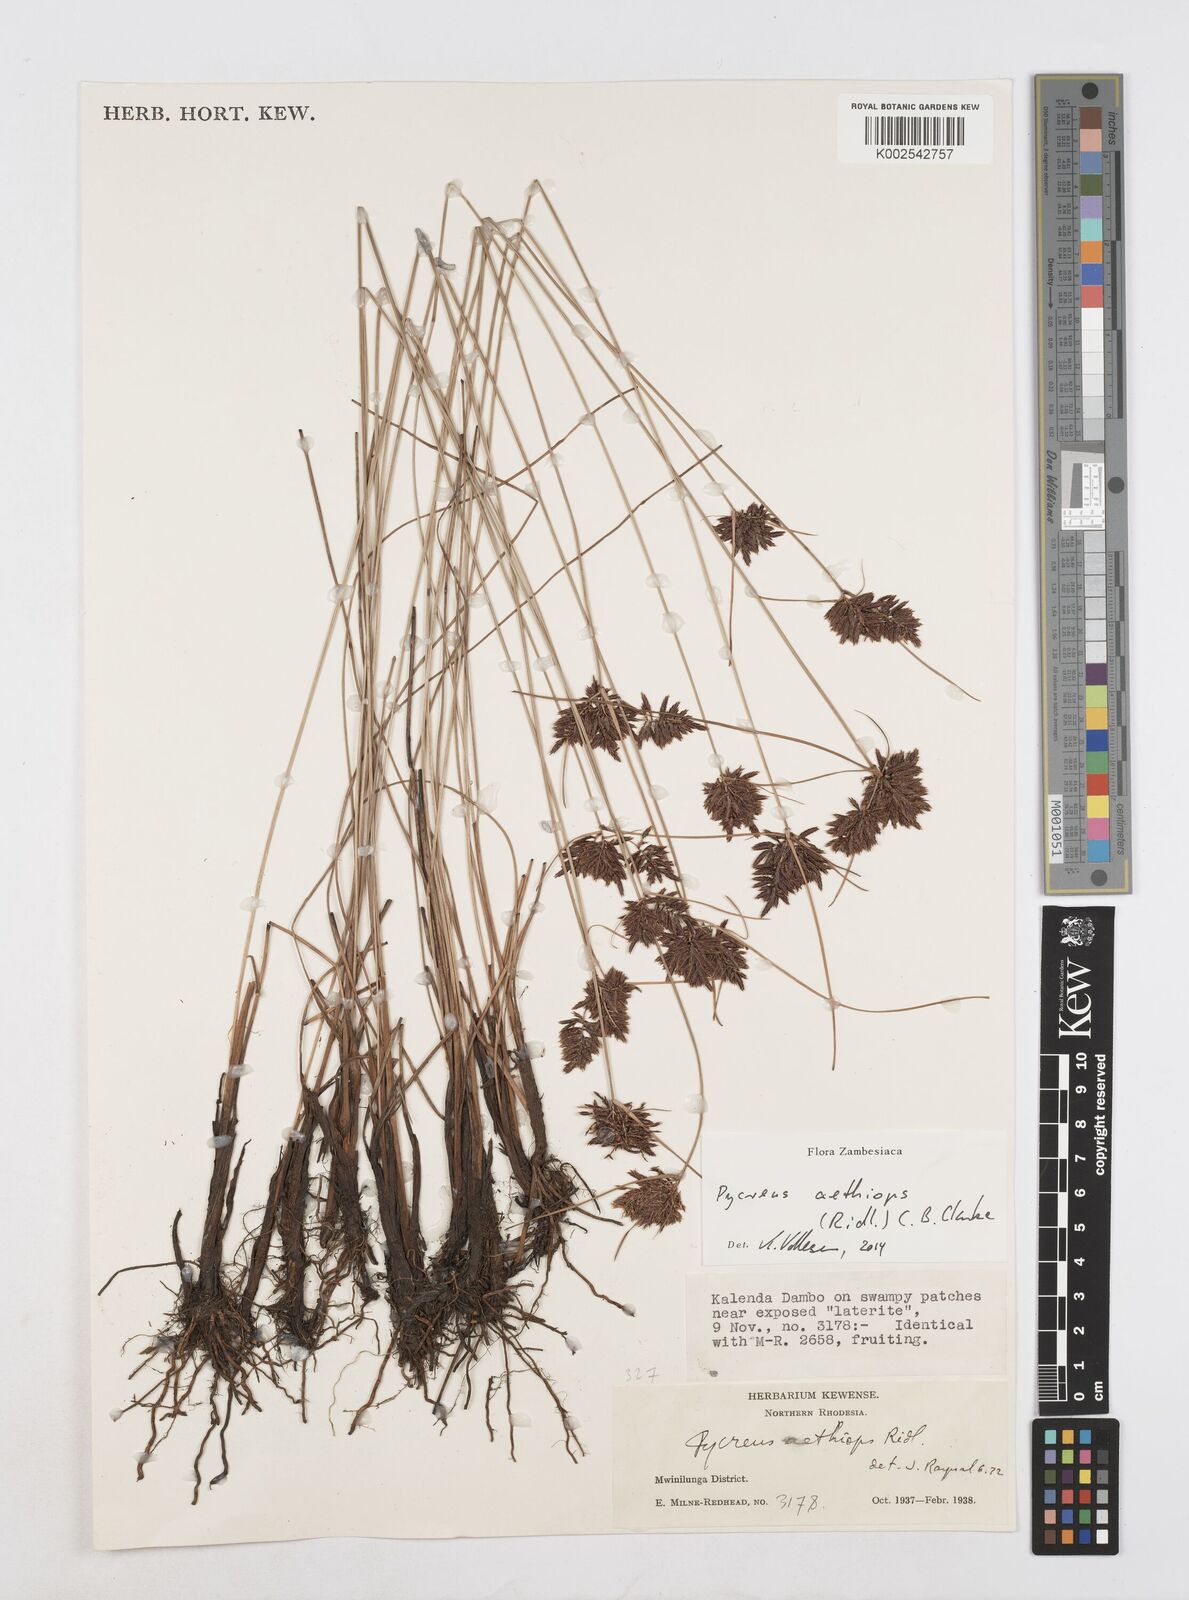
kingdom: Plantae
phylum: Tracheophyta
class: Liliopsida
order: Poales
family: Cyperaceae
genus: Cyperus
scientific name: Cyperus aethiops
